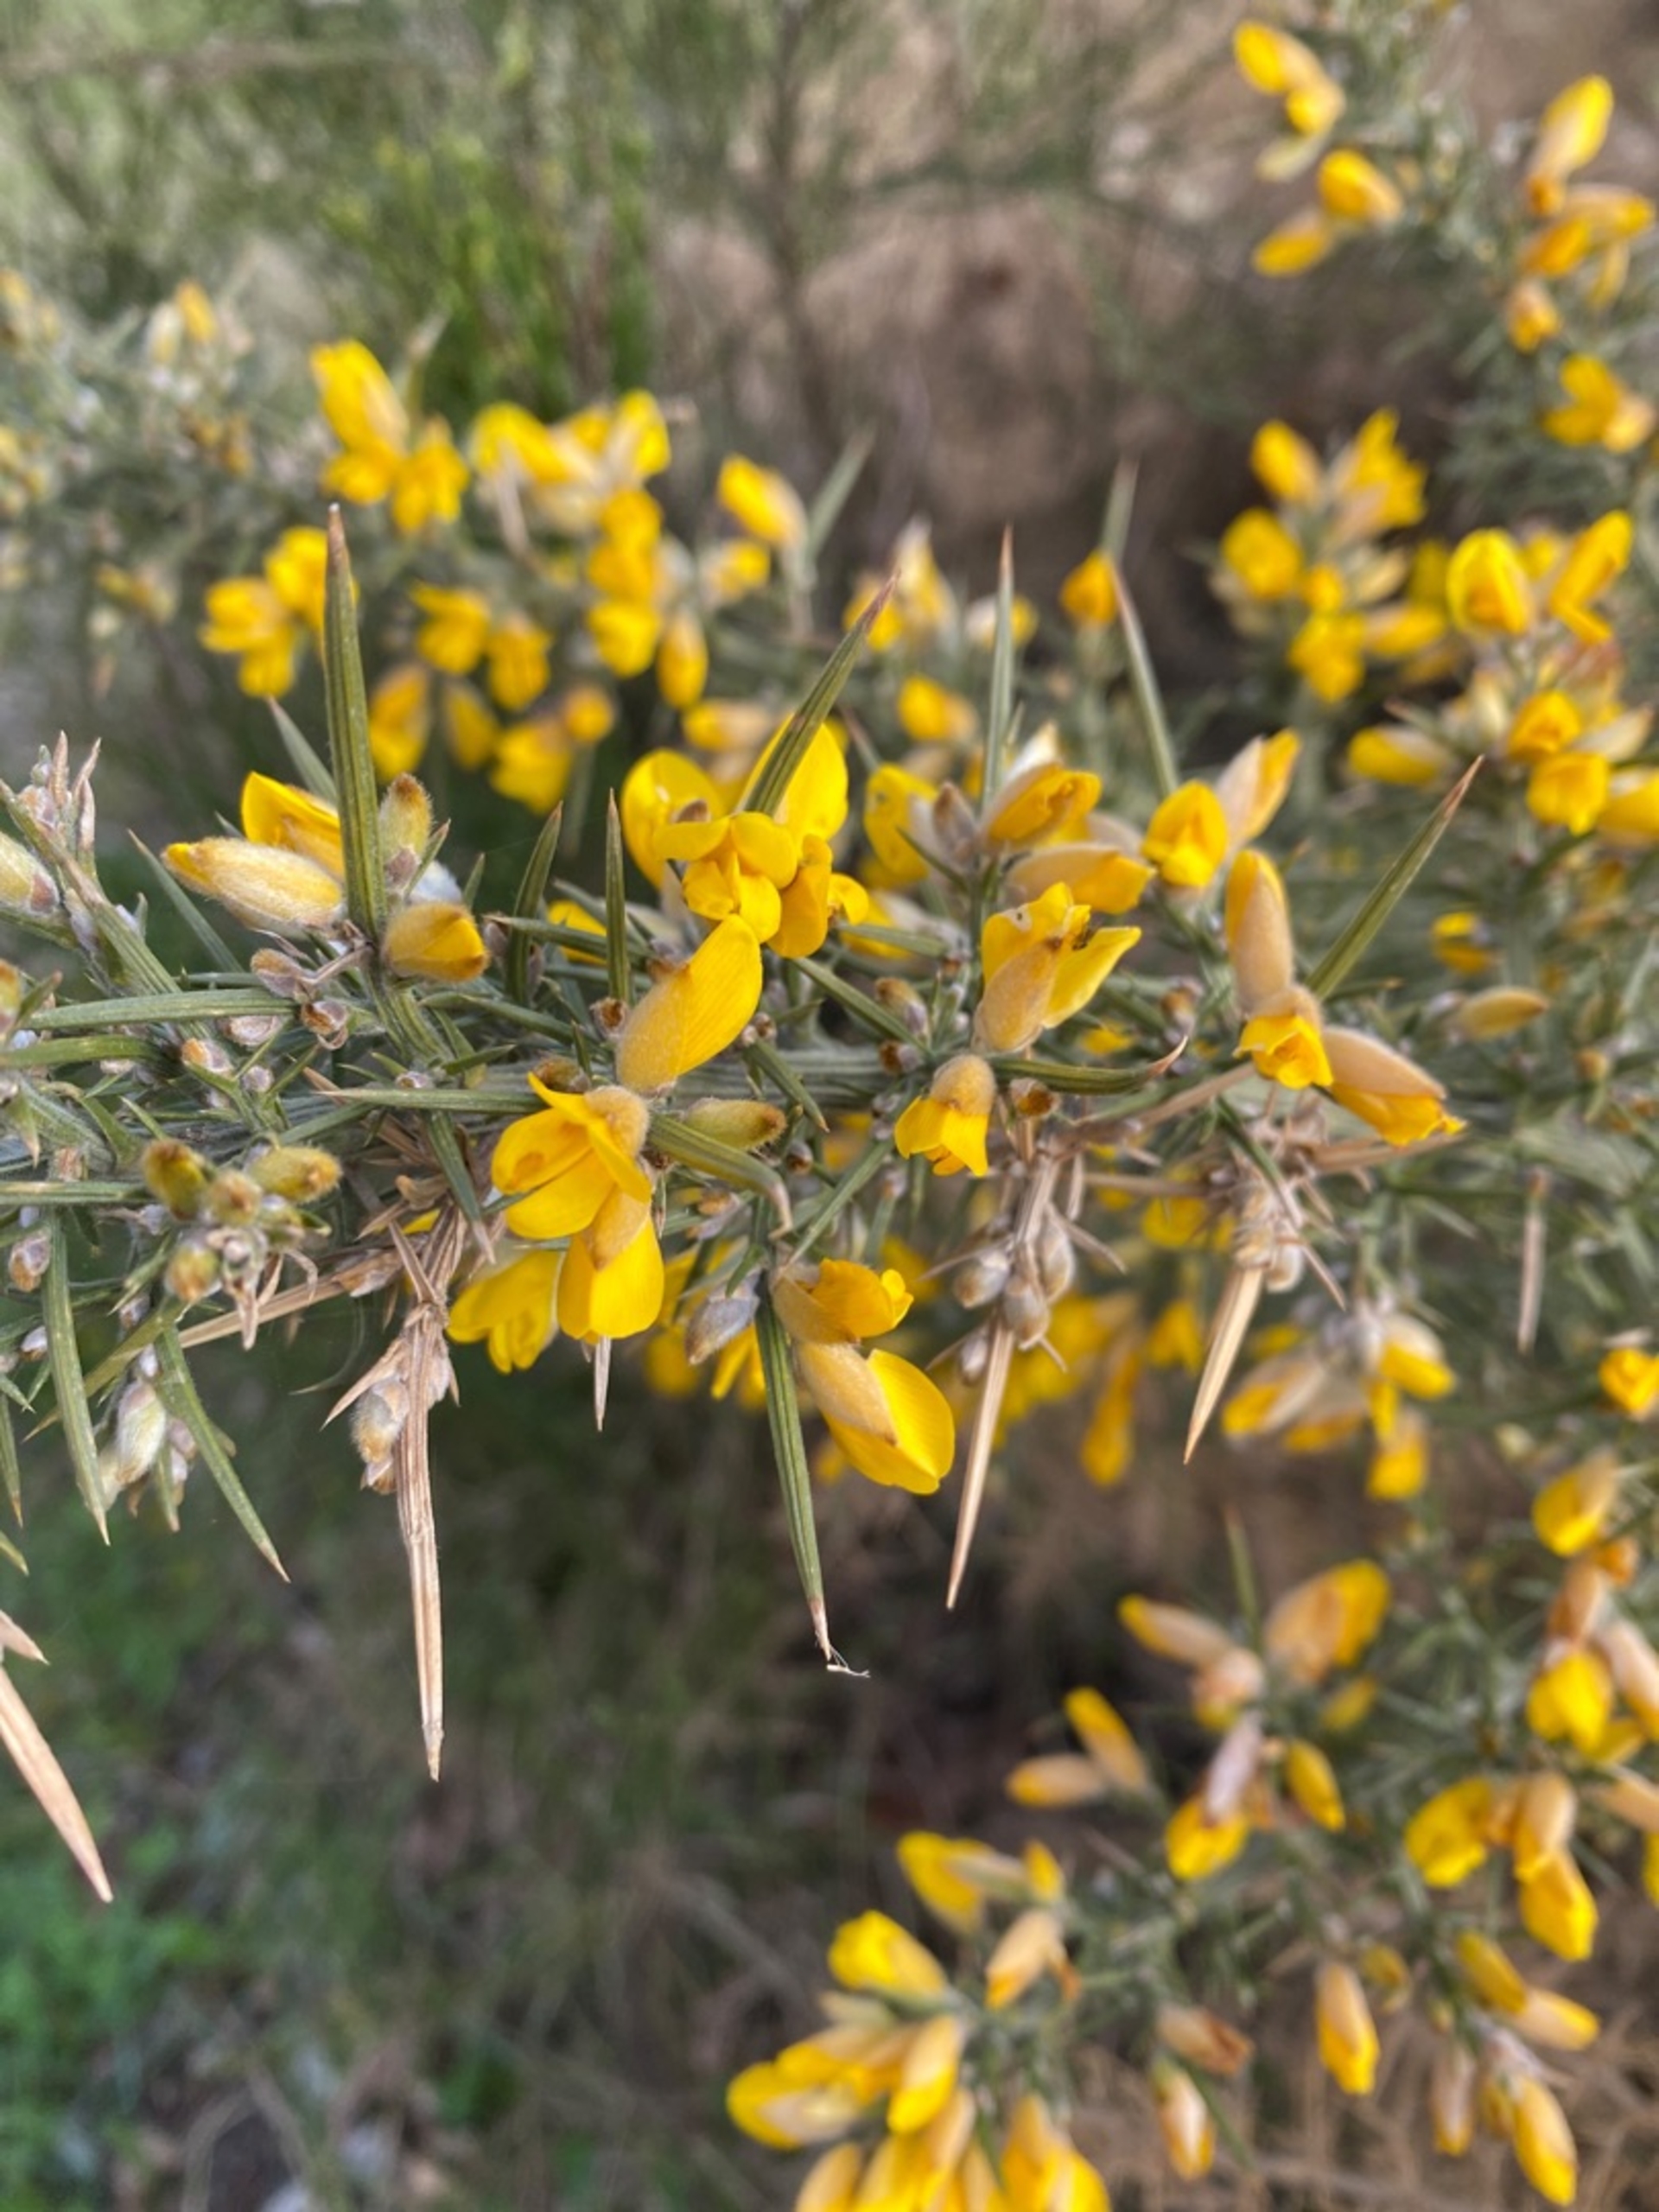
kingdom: Plantae
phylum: Tracheophyta
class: Magnoliopsida
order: Fabales
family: Fabaceae
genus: Ulex
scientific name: Ulex europaeus
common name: Tornblad
